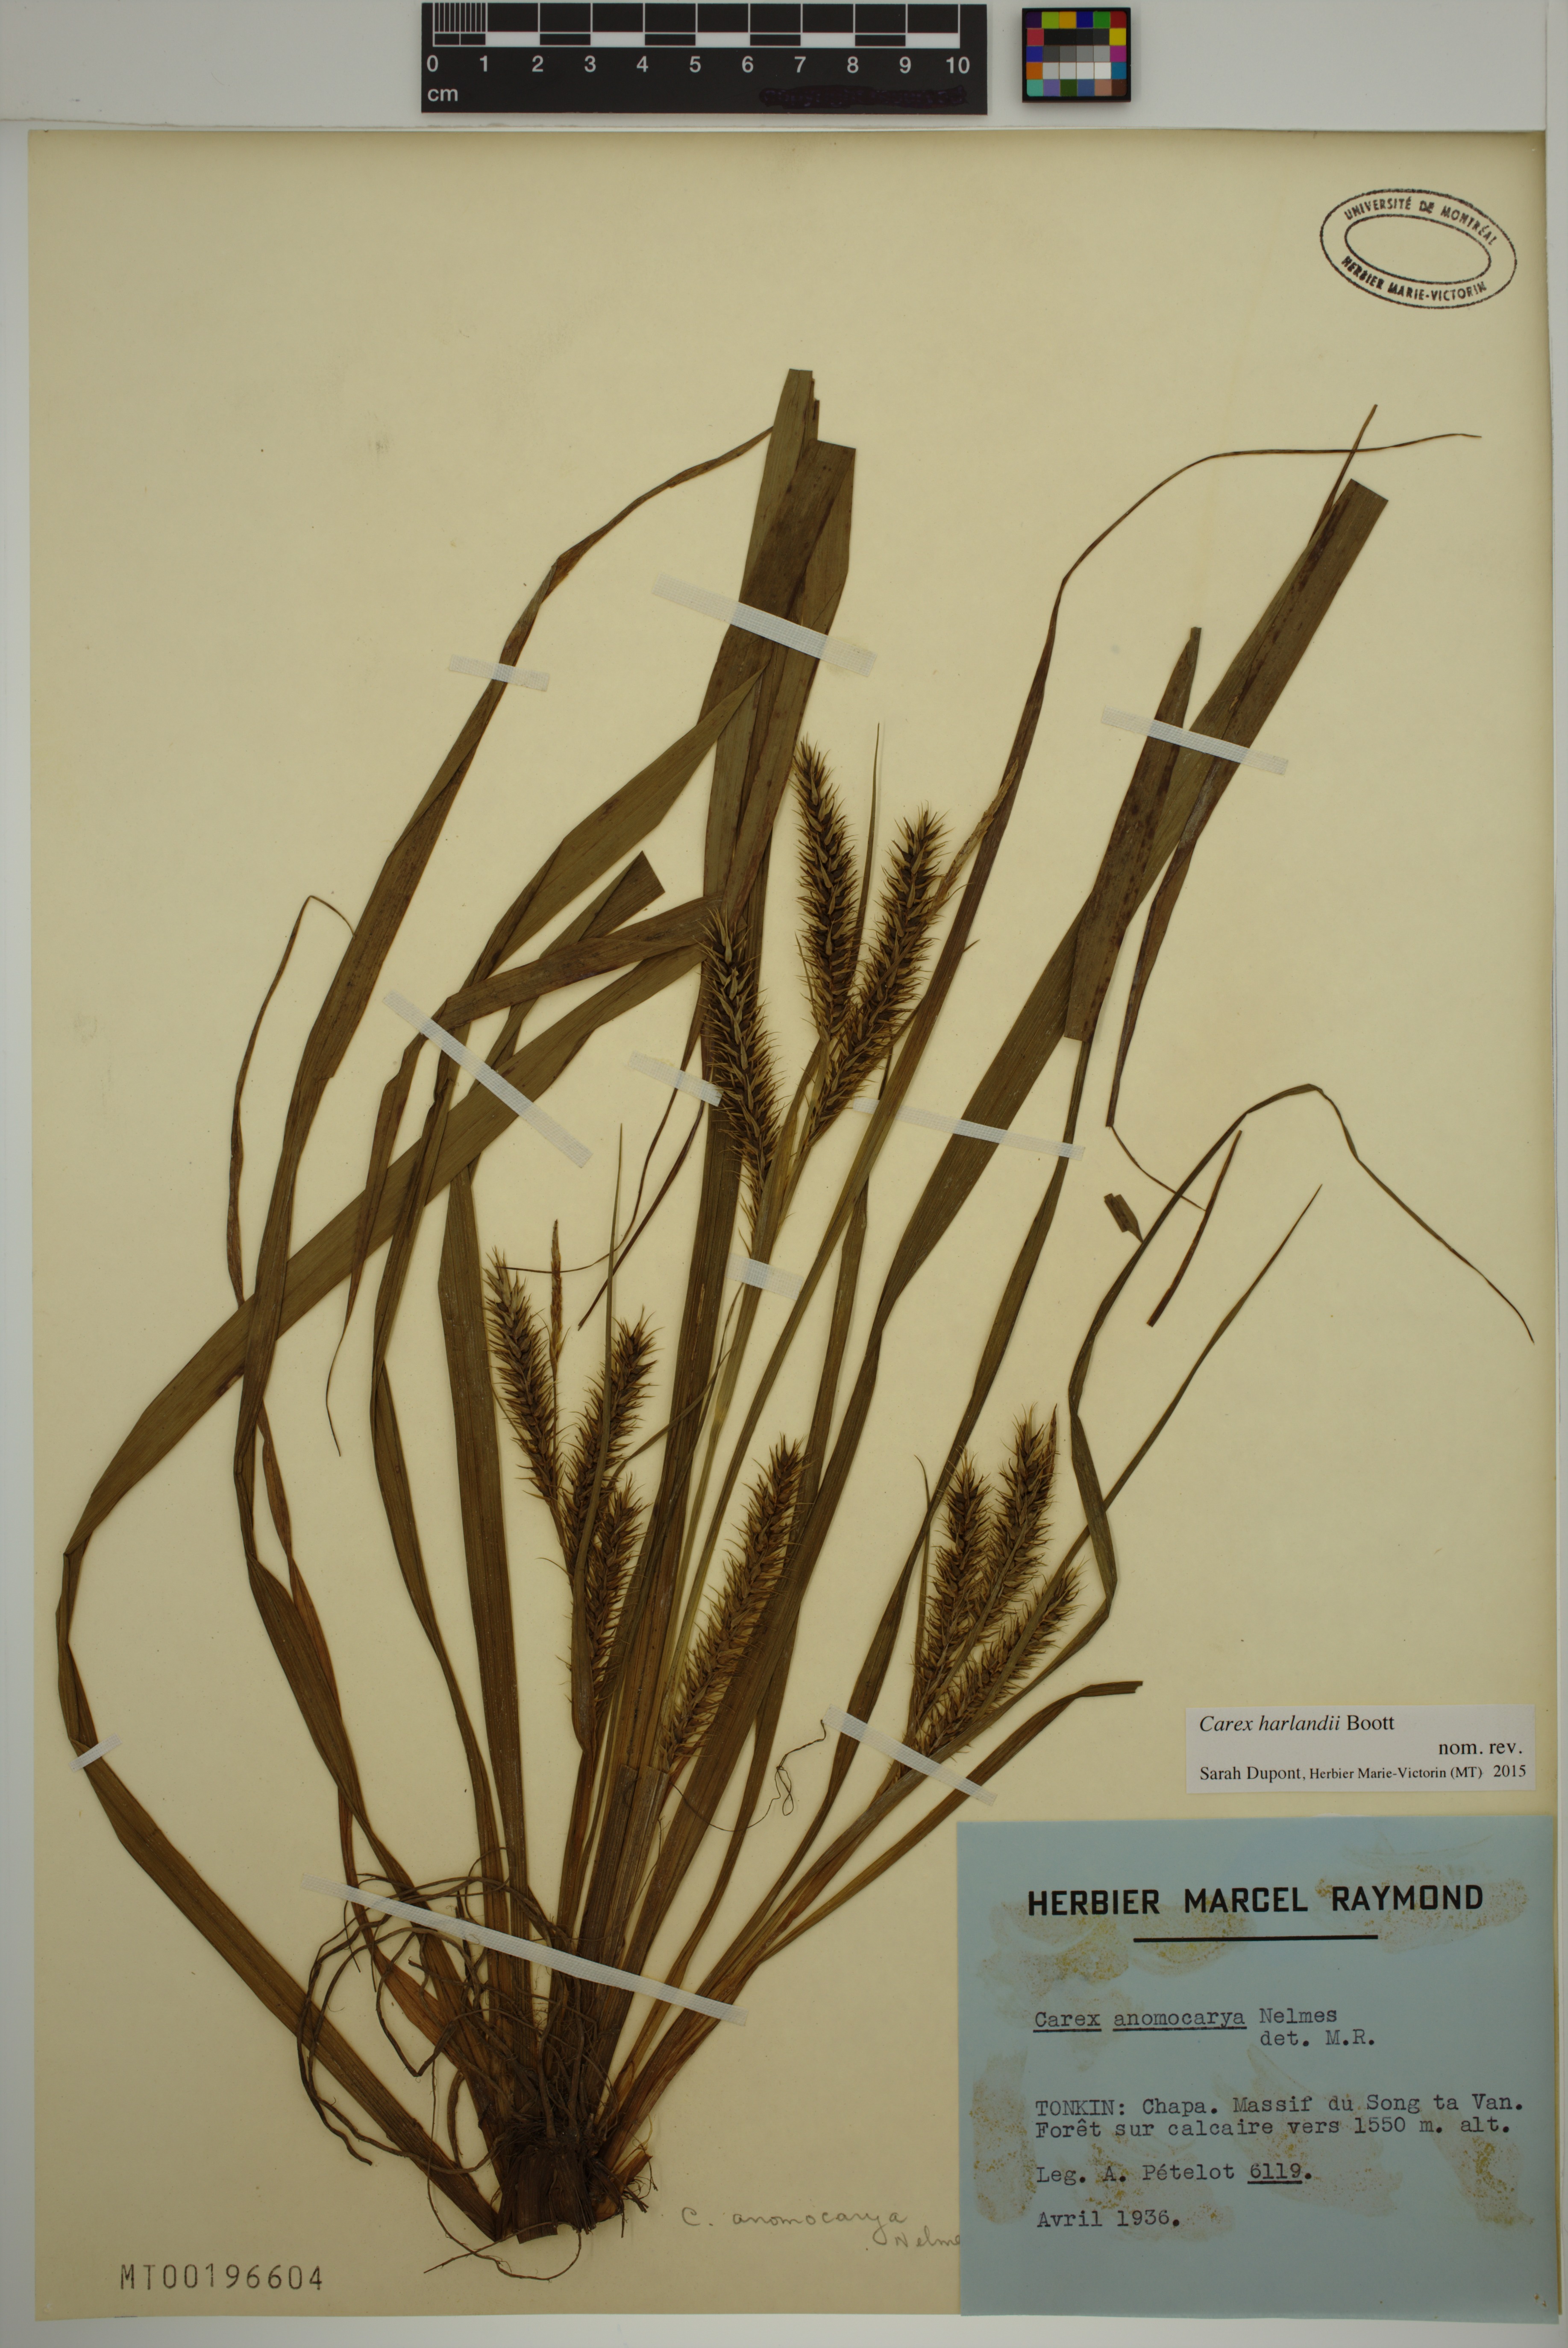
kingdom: Plantae
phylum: Tracheophyta
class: Liliopsida
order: Poales
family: Cyperaceae
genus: Carex
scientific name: Carex harlandii
